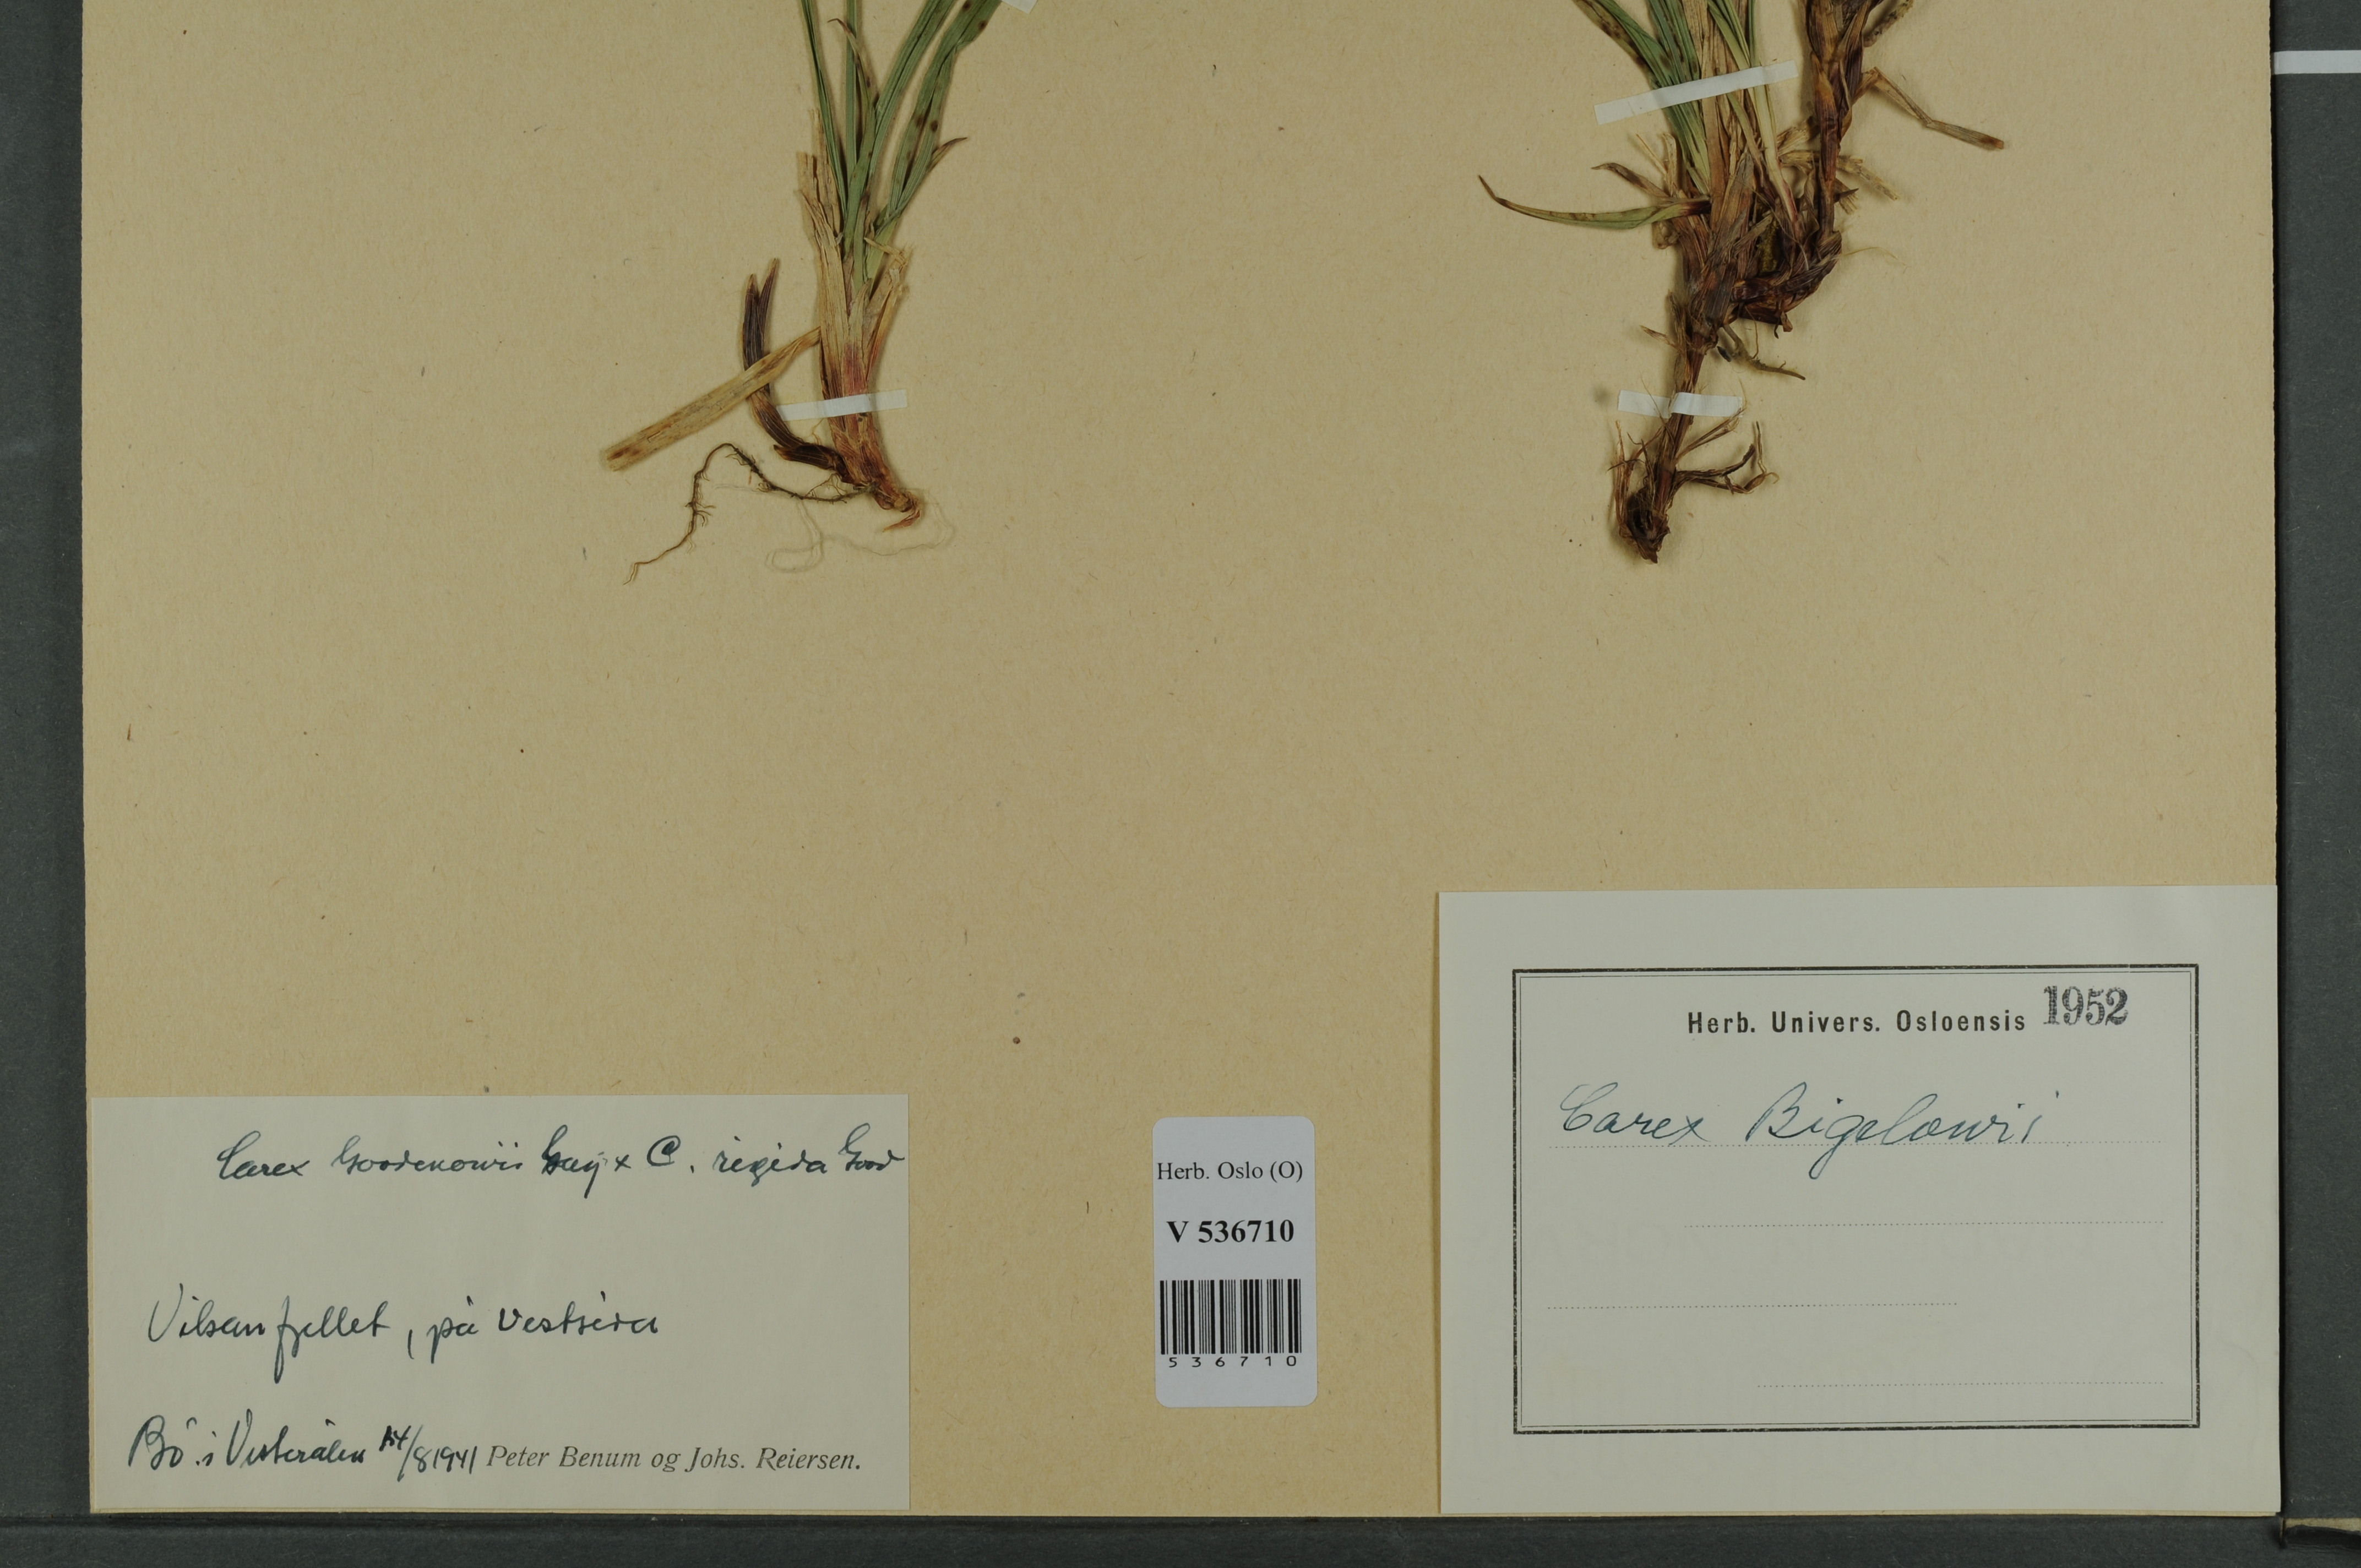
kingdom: Plantae
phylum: Tracheophyta
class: Liliopsida
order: Poales
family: Cyperaceae
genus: Carex
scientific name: Carex bigelowii
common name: Stiff sedge
